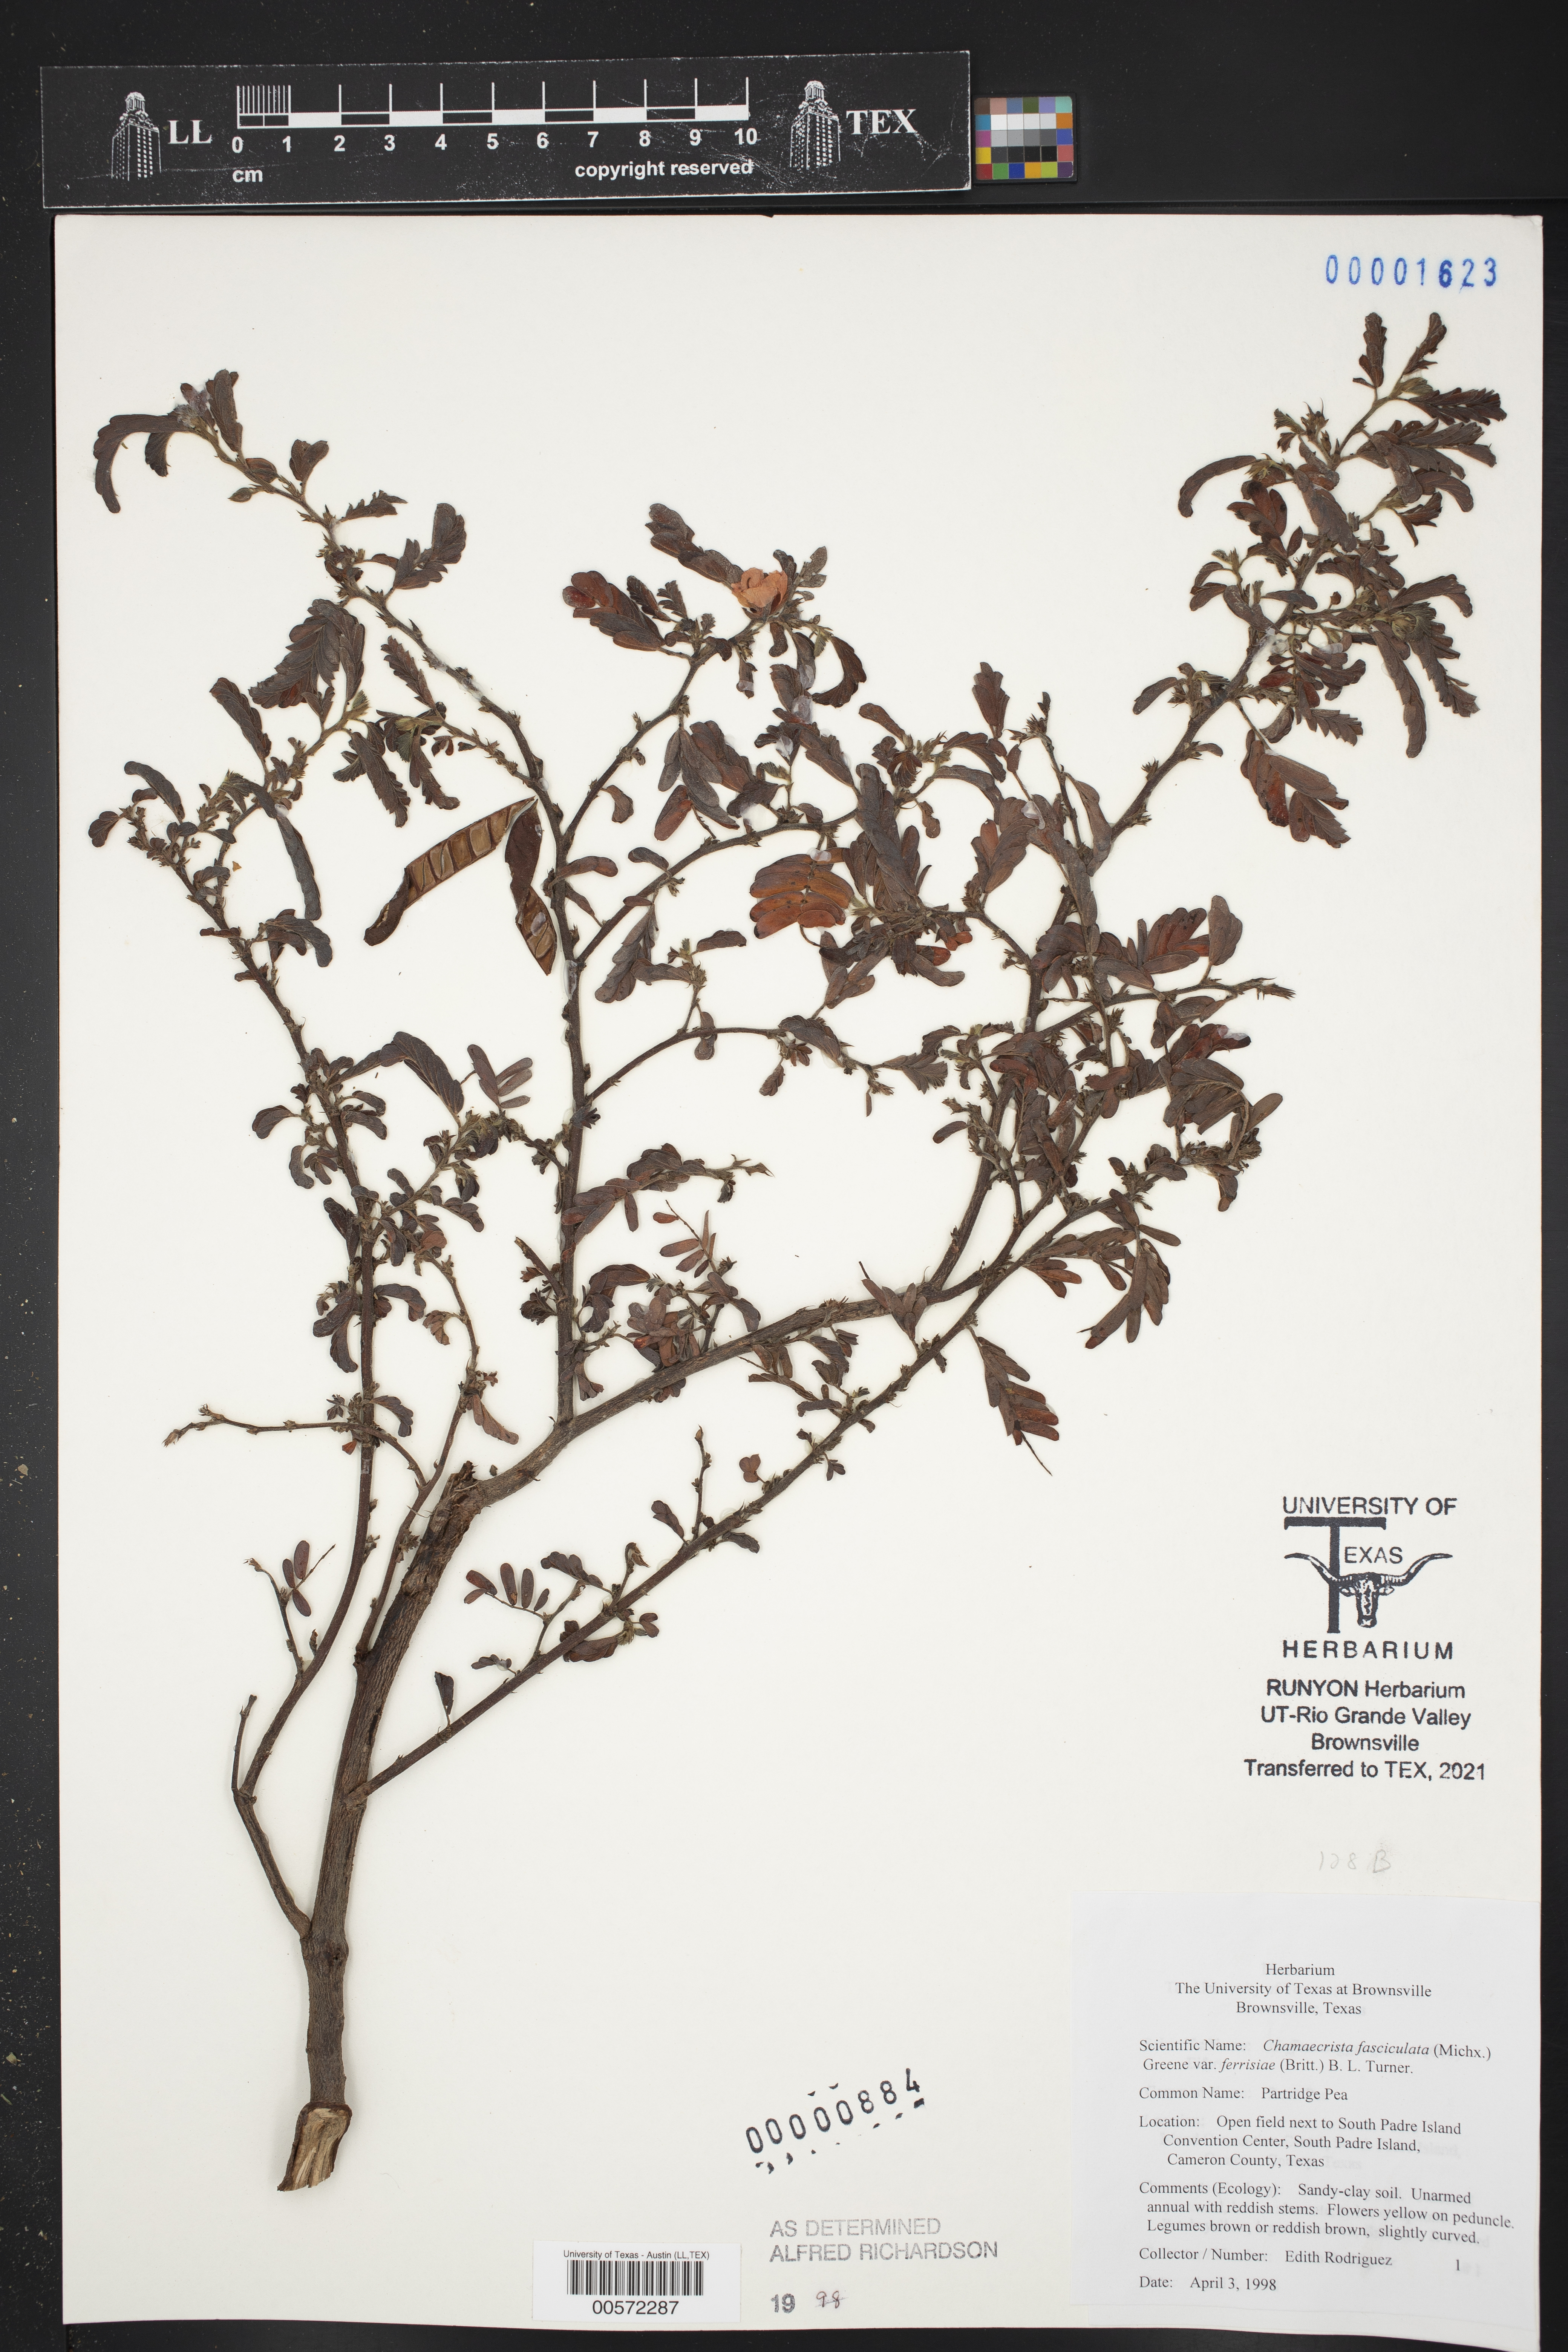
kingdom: Plantae
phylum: Tracheophyta
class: Magnoliopsida
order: Fabales
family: Fabaceae
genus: Chamaecrista
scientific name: Chamaecrista fasciculata
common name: Golden cassia
